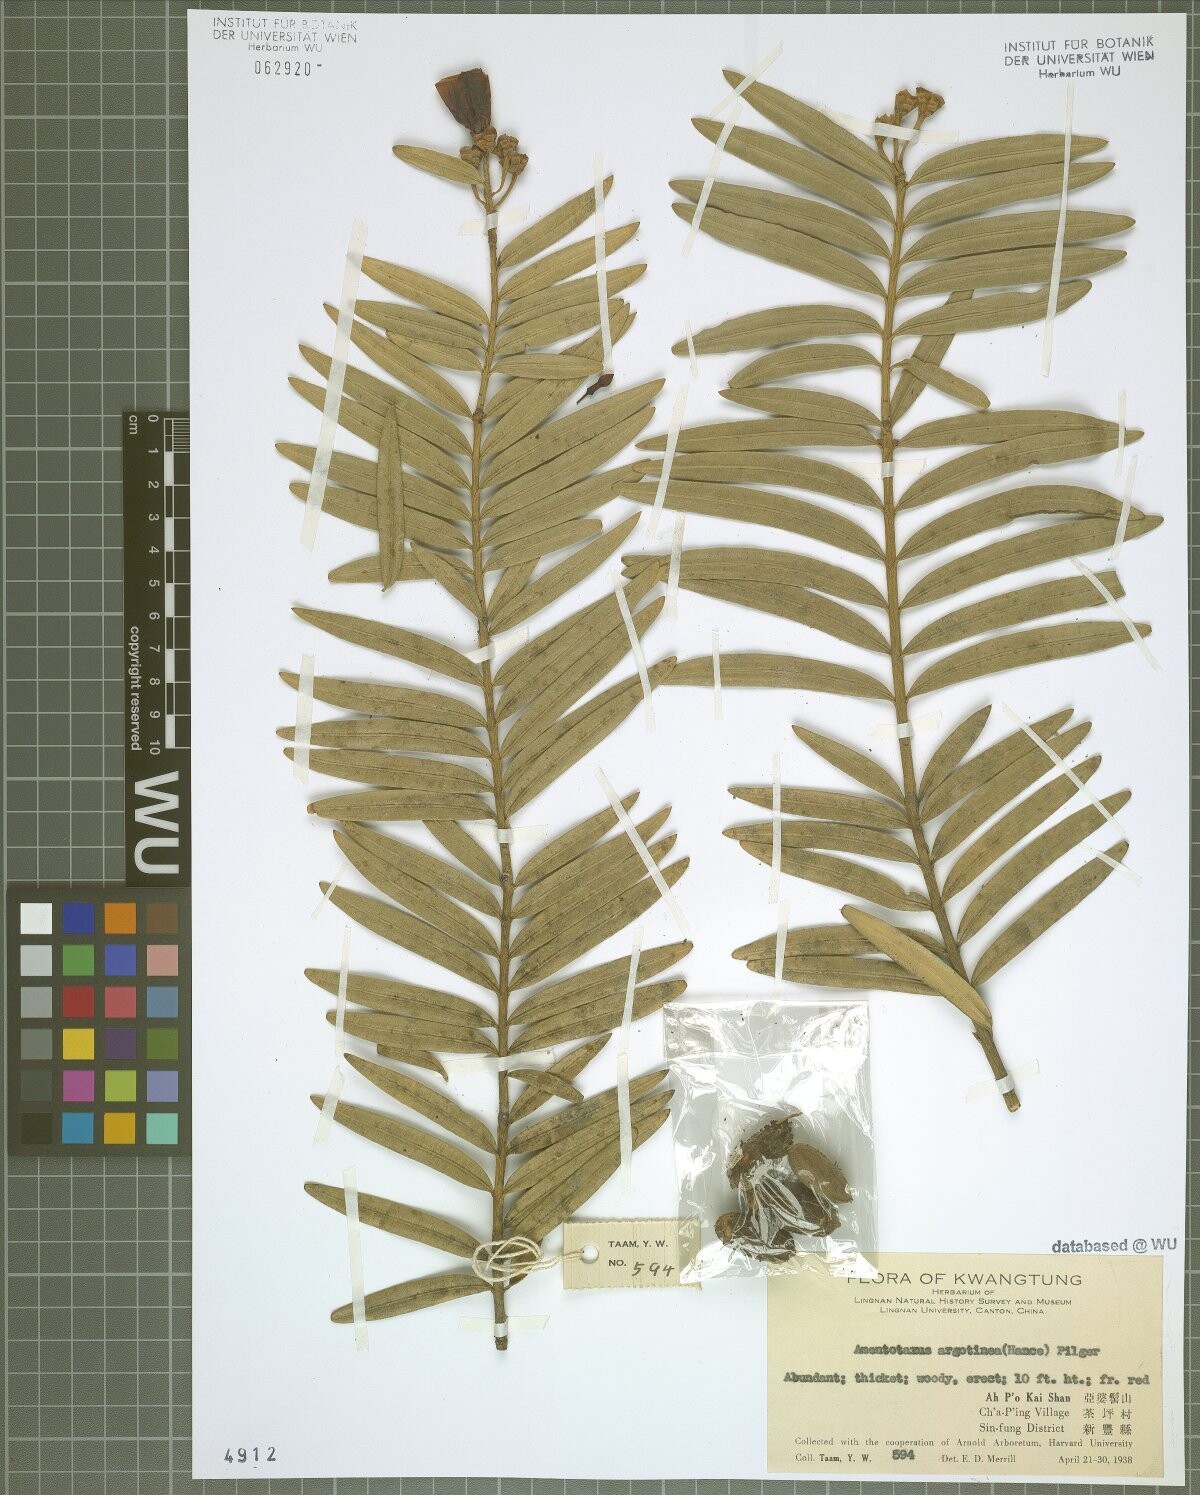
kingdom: Plantae
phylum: Tracheophyta
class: Pinopsida
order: Pinales
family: Taxaceae
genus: Amentotaxus
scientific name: Amentotaxus argotaenia
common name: Catkin yew
